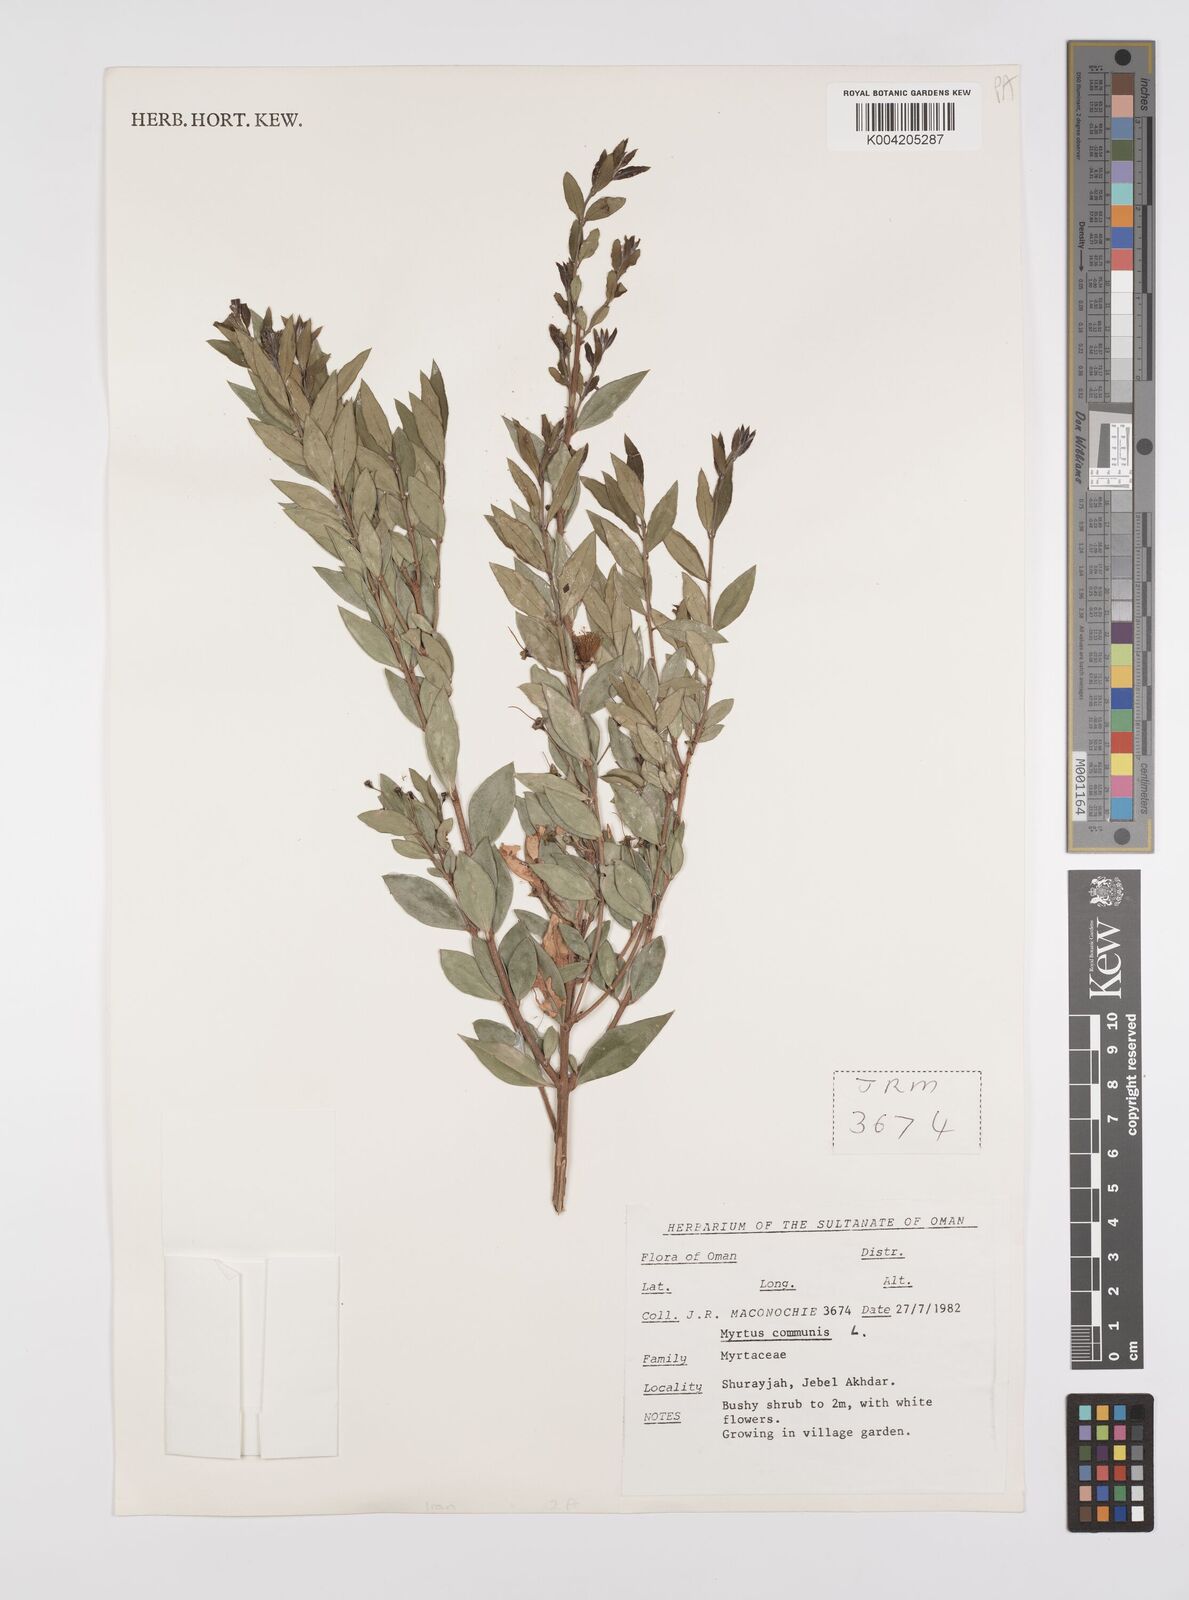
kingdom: Plantae
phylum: Tracheophyta
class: Magnoliopsida
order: Myrtales
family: Myrtaceae
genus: Myrtus
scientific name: Myrtus communis
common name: Myrtle
